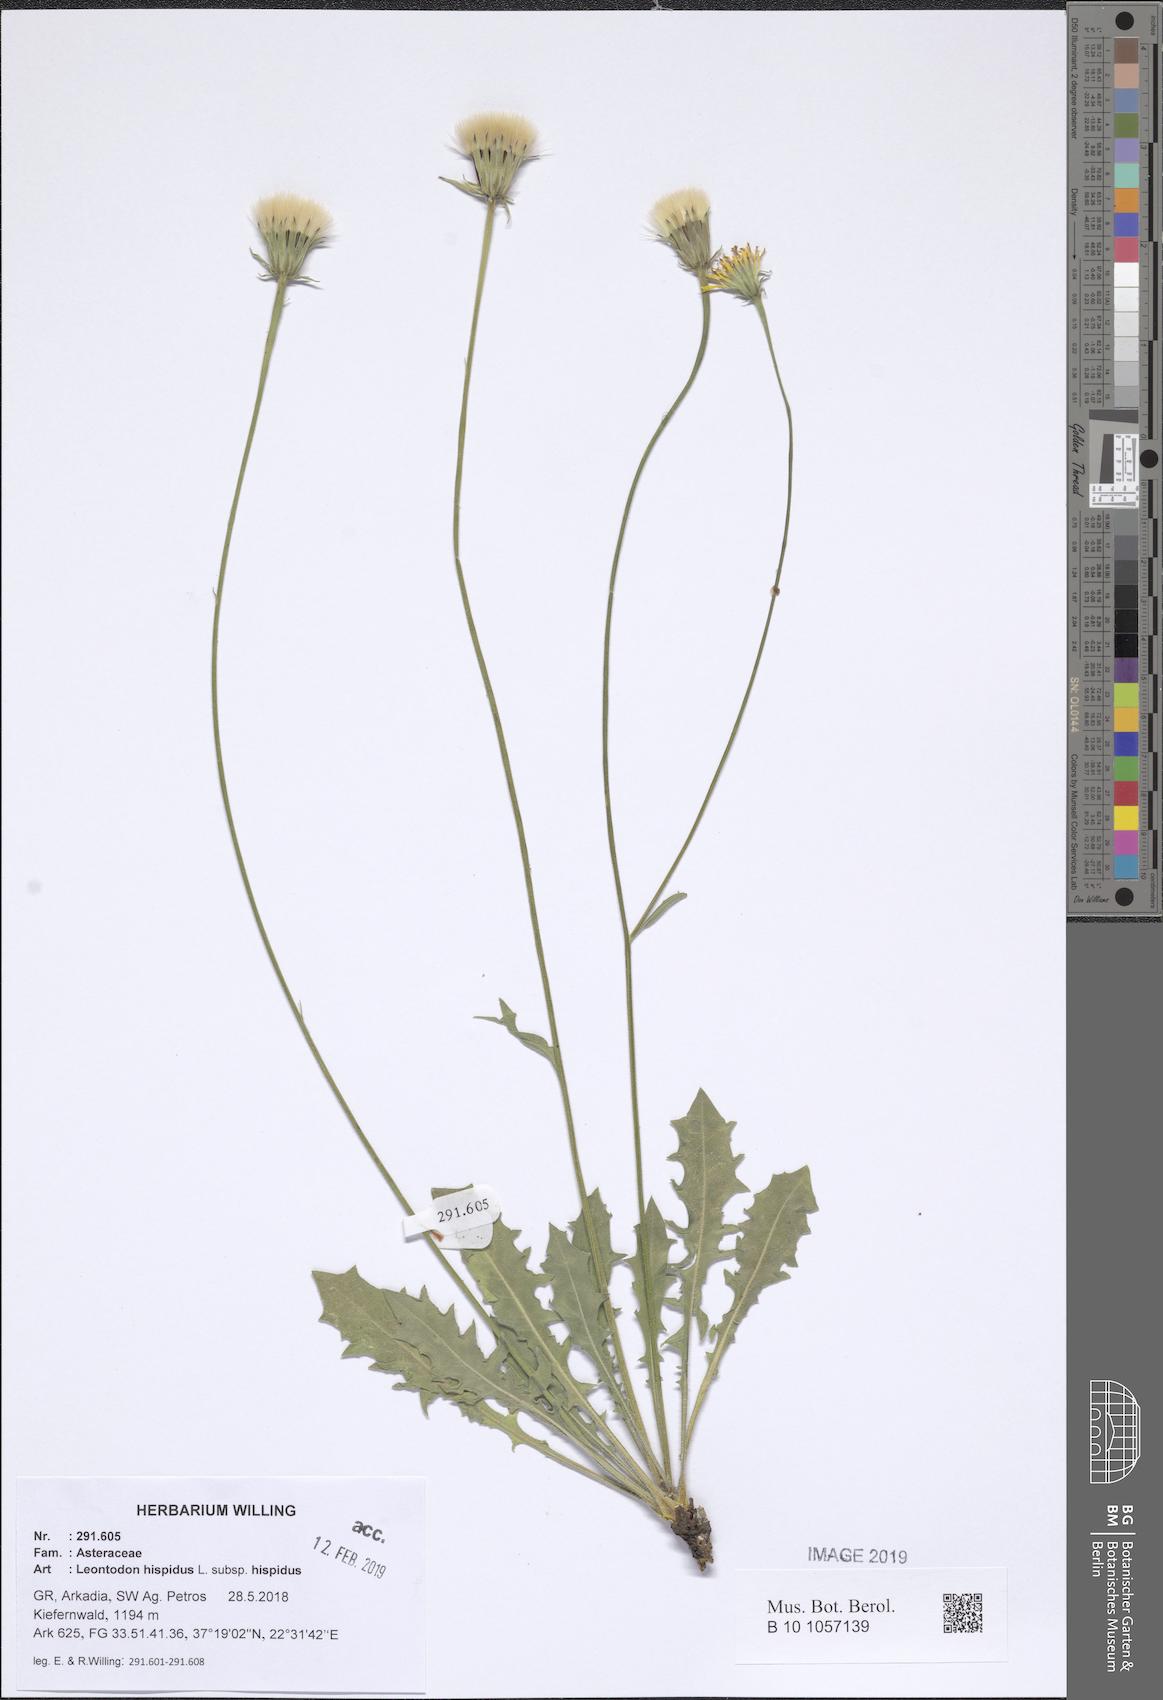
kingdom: Plantae
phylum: Tracheophyta
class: Magnoliopsida
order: Asterales
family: Asteraceae
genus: Leontodon
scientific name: Leontodon hispidus
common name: Rough hawkbit
